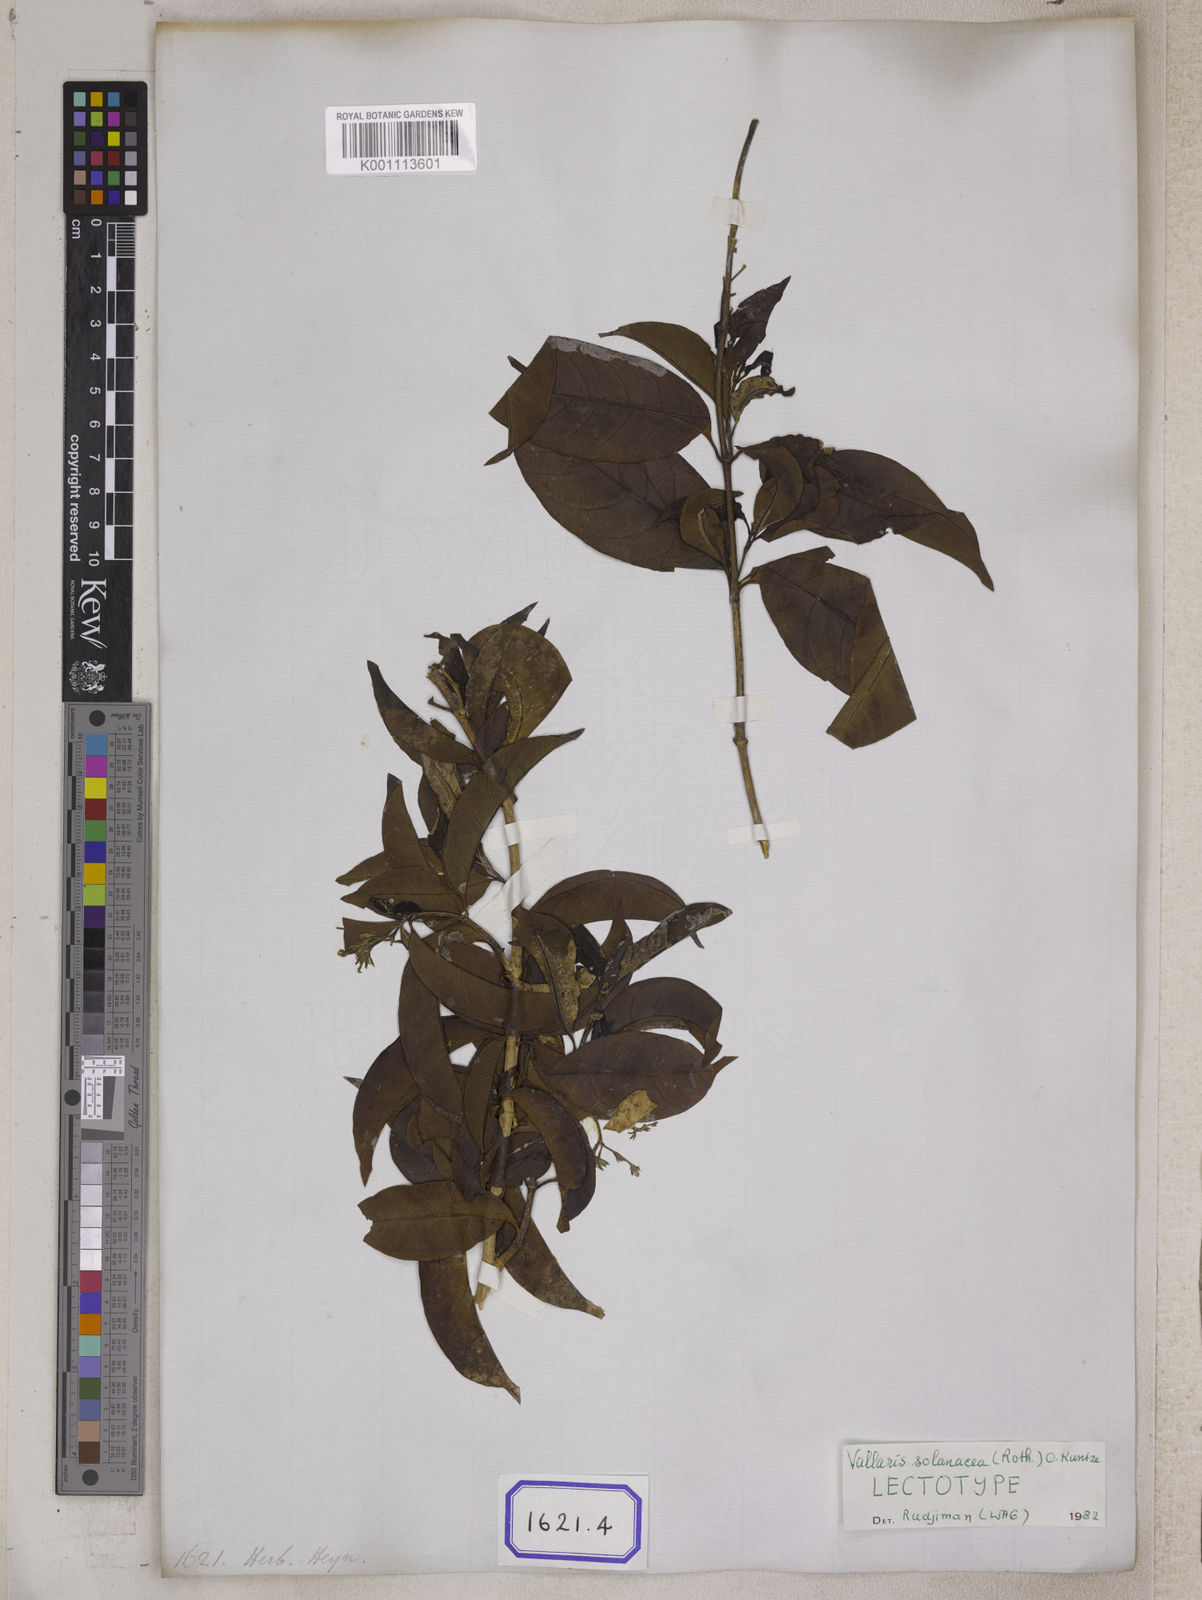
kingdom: Plantae
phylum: Tracheophyta
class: Magnoliopsida
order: Gentianales
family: Apocynaceae
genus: Vallaris
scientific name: Vallaris glabra
